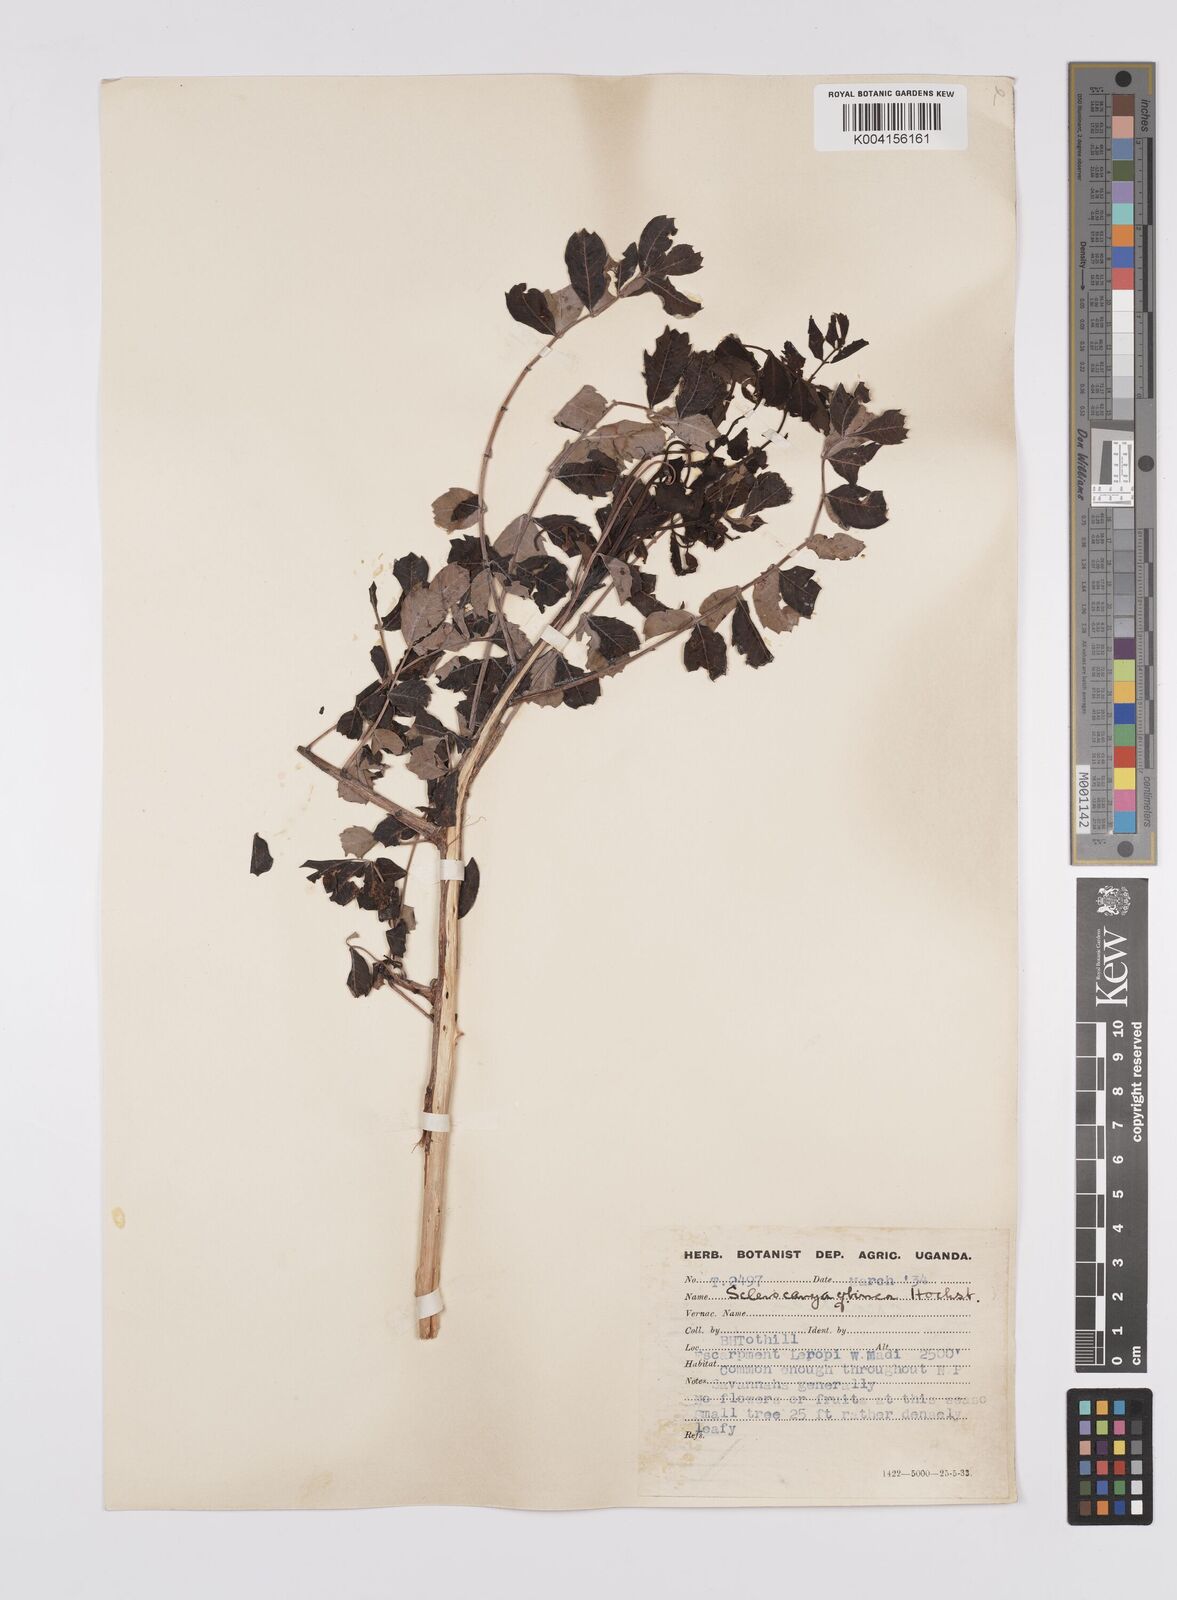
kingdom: Plantae
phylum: Tracheophyta
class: Magnoliopsida
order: Sapindales
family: Anacardiaceae
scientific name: Anacardiaceae
